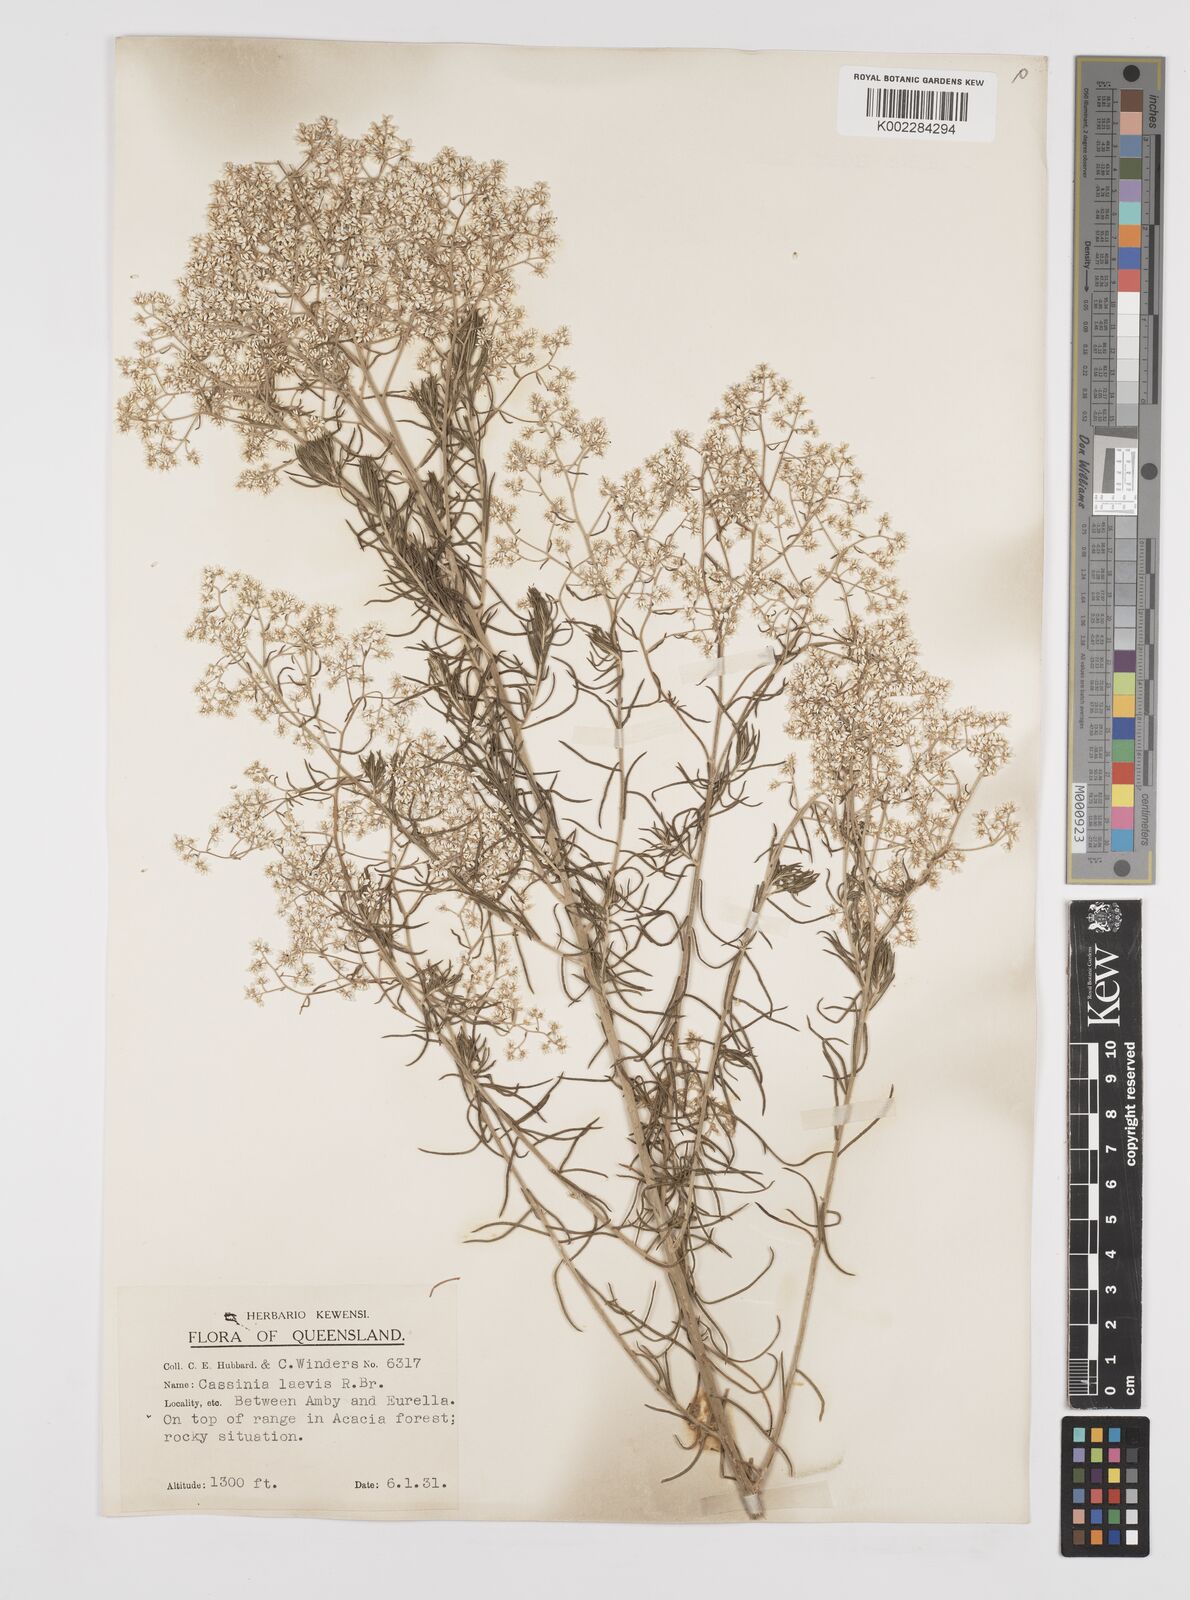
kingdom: Plantae
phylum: Tracheophyta
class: Magnoliopsida
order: Asterales
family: Asteraceae
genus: Cassinia
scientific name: Cassinia laevis
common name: Coughbush
